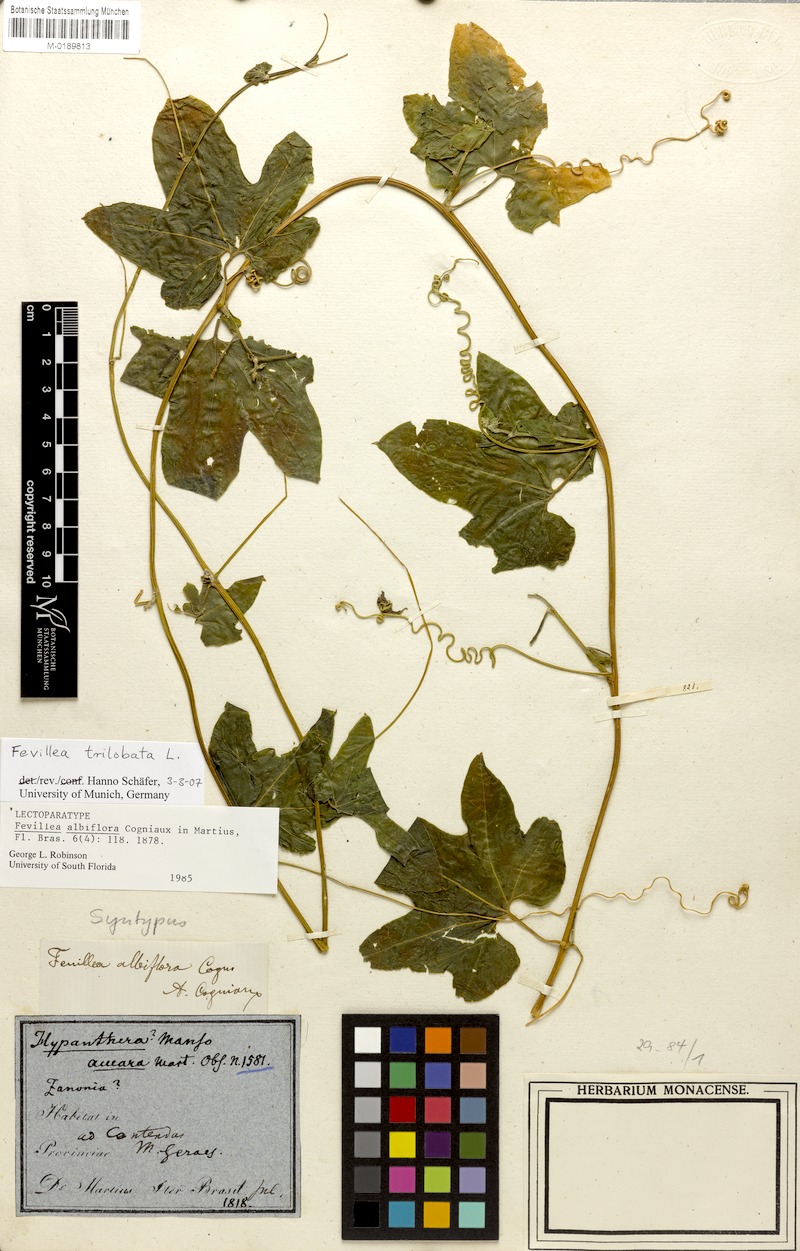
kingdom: Plantae
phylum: Tracheophyta
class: Magnoliopsida
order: Cucurbitales
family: Cucurbitaceae
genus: Fevillea
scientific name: Fevillea trilobata
